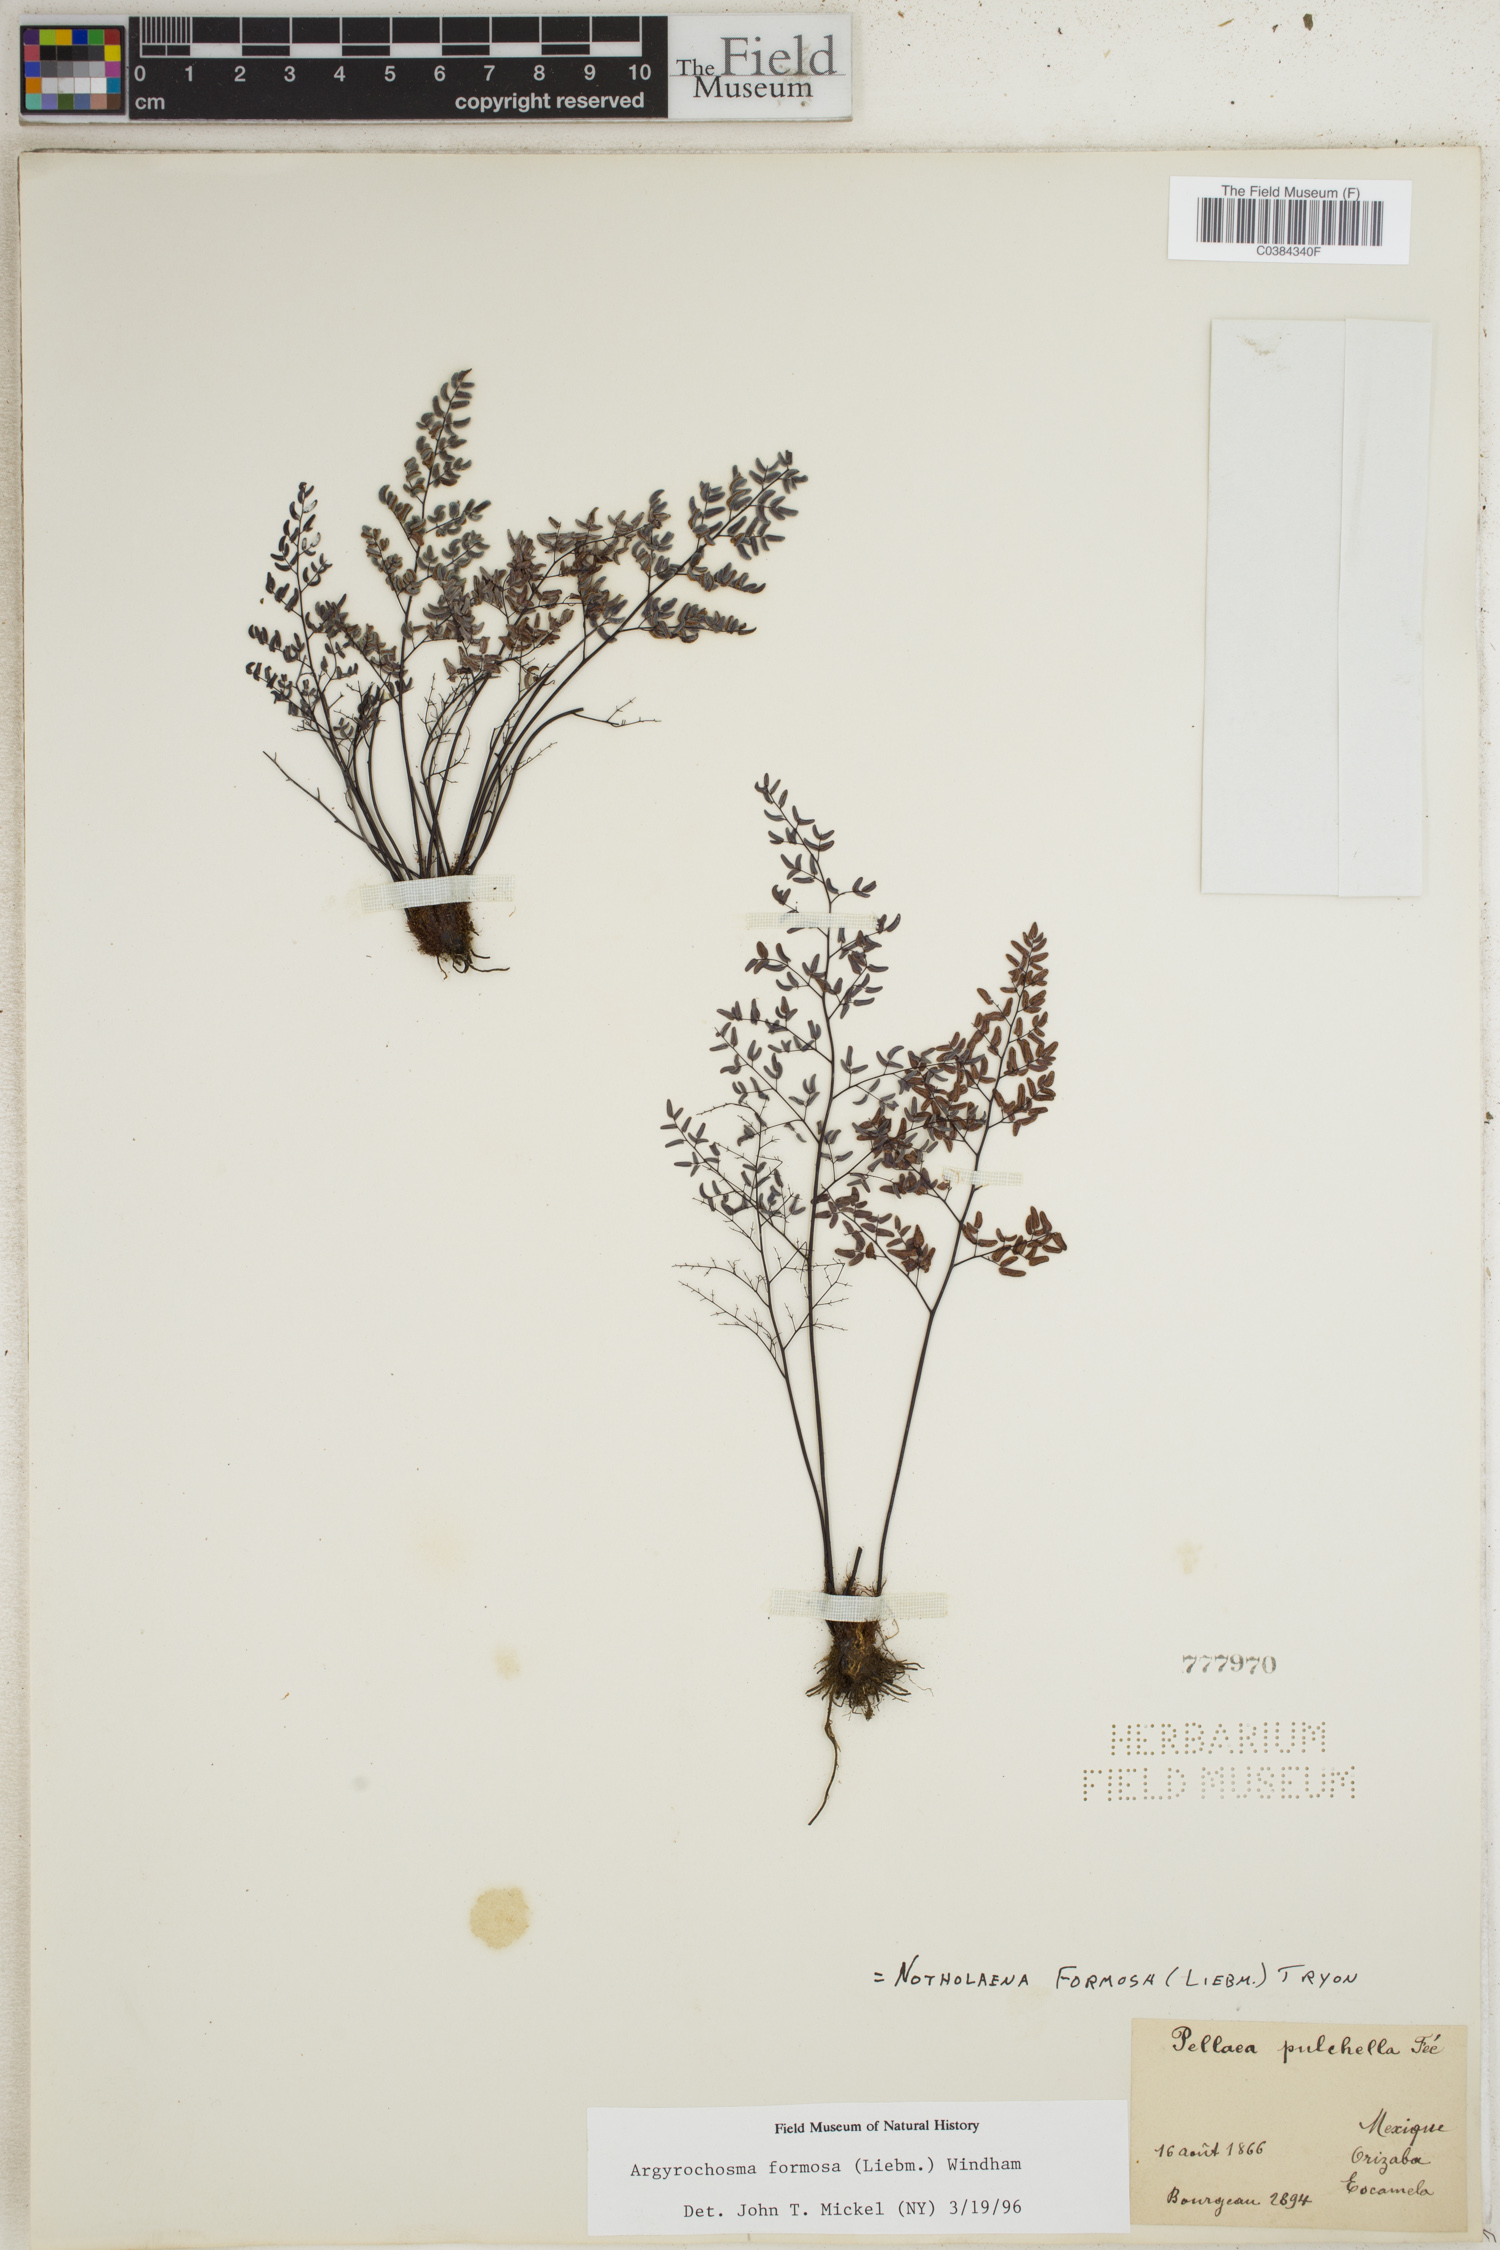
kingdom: Plantae
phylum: Tracheophyta
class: Polypodiopsida
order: Polypodiales
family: Pteridaceae
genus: Argyrochosma
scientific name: Argyrochosma formosa
